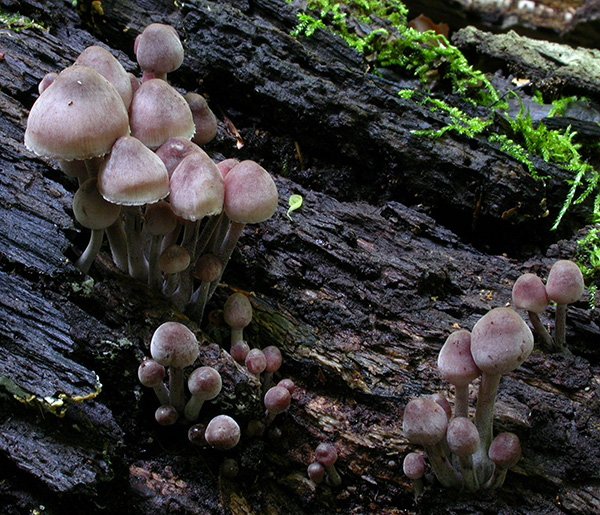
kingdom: Fungi
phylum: Basidiomycota
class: Agaricomycetes
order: Agaricales
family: Mycenaceae
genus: Mycena
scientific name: Mycena haematopus
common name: blødende huesvamp
